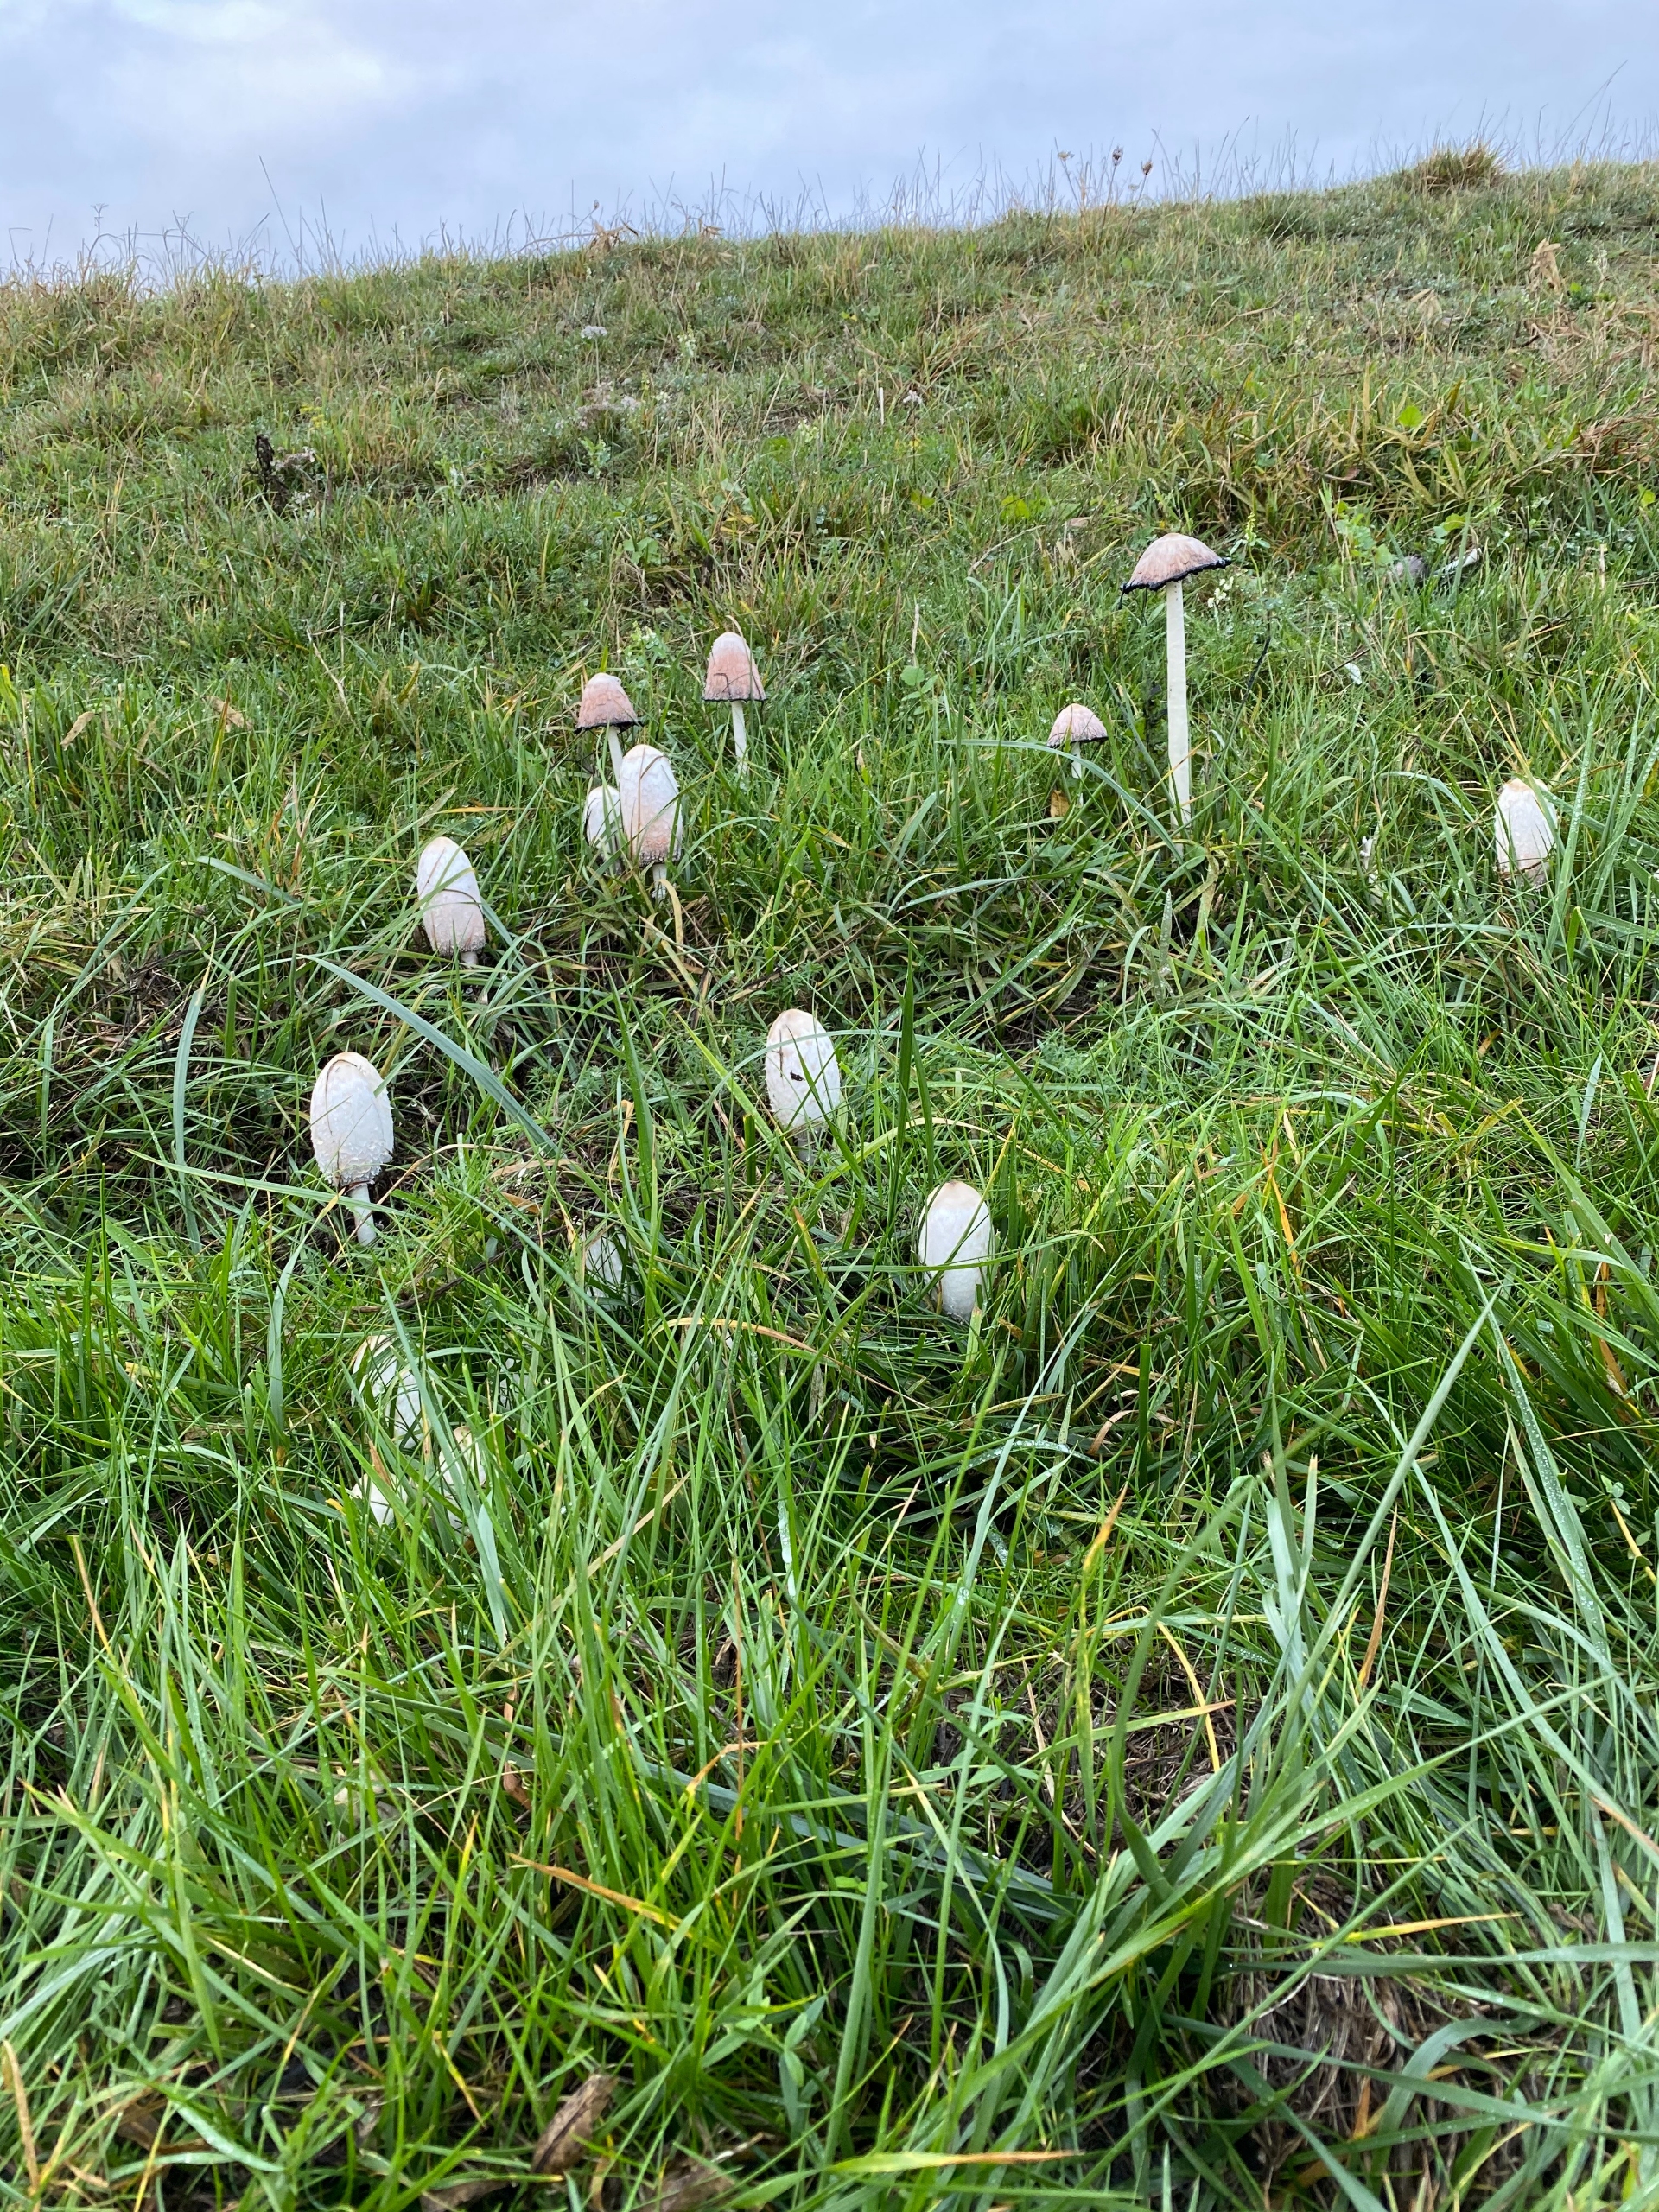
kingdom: Fungi
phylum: Basidiomycota
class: Agaricomycetes
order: Agaricales
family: Agaricaceae
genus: Coprinus
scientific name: Coprinus comatus
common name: Stor parykhat
